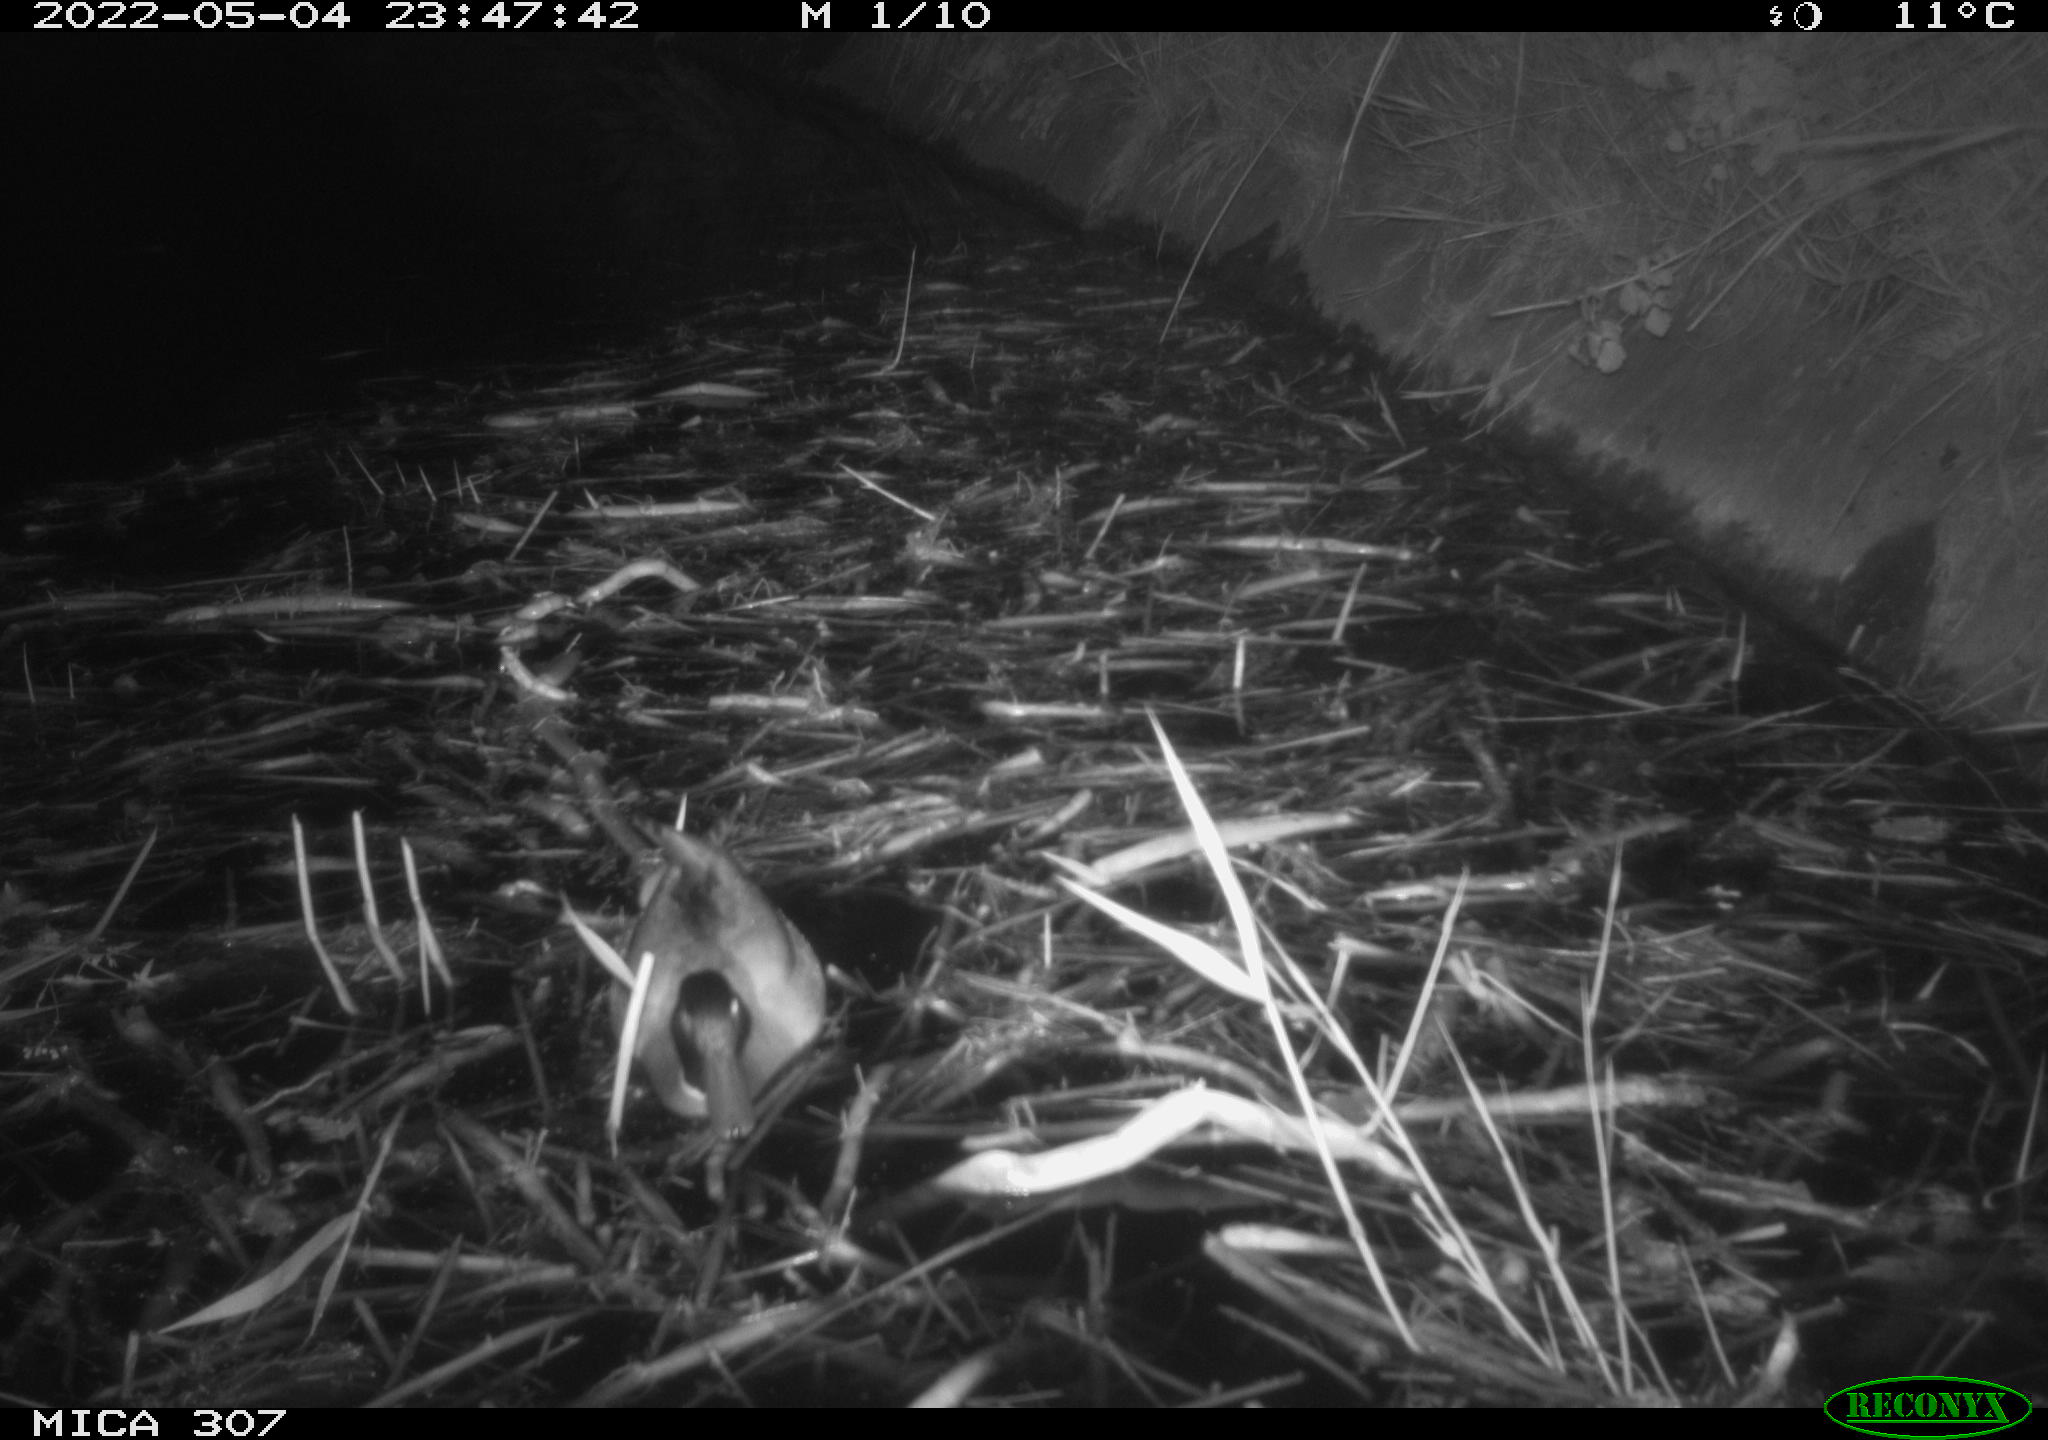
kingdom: Animalia
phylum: Chordata
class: Aves
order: Anseriformes
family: Anatidae
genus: Anas
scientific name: Anas platyrhynchos
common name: Mallard
